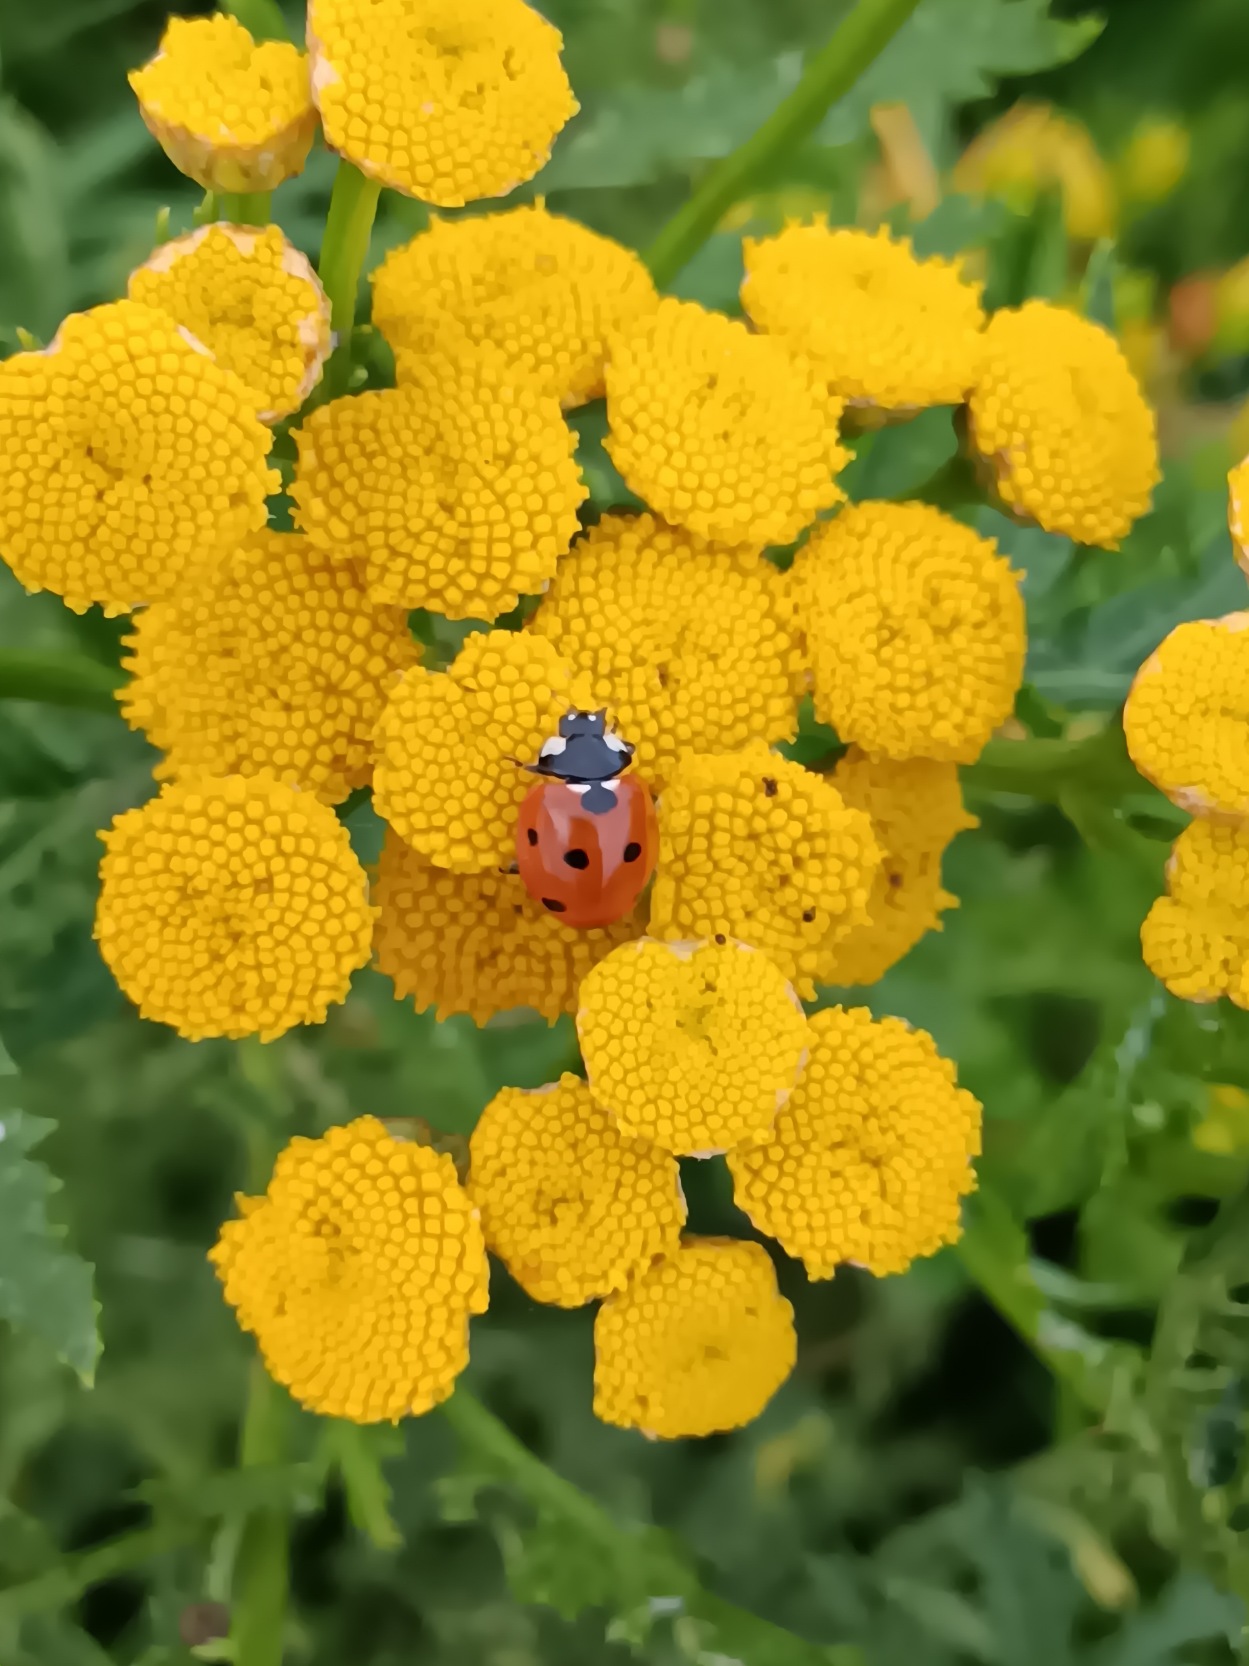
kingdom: Animalia
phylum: Arthropoda
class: Insecta
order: Coleoptera
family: Coccinellidae
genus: Coccinella
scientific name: Coccinella septempunctata
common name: Syvplettet mariehøne
